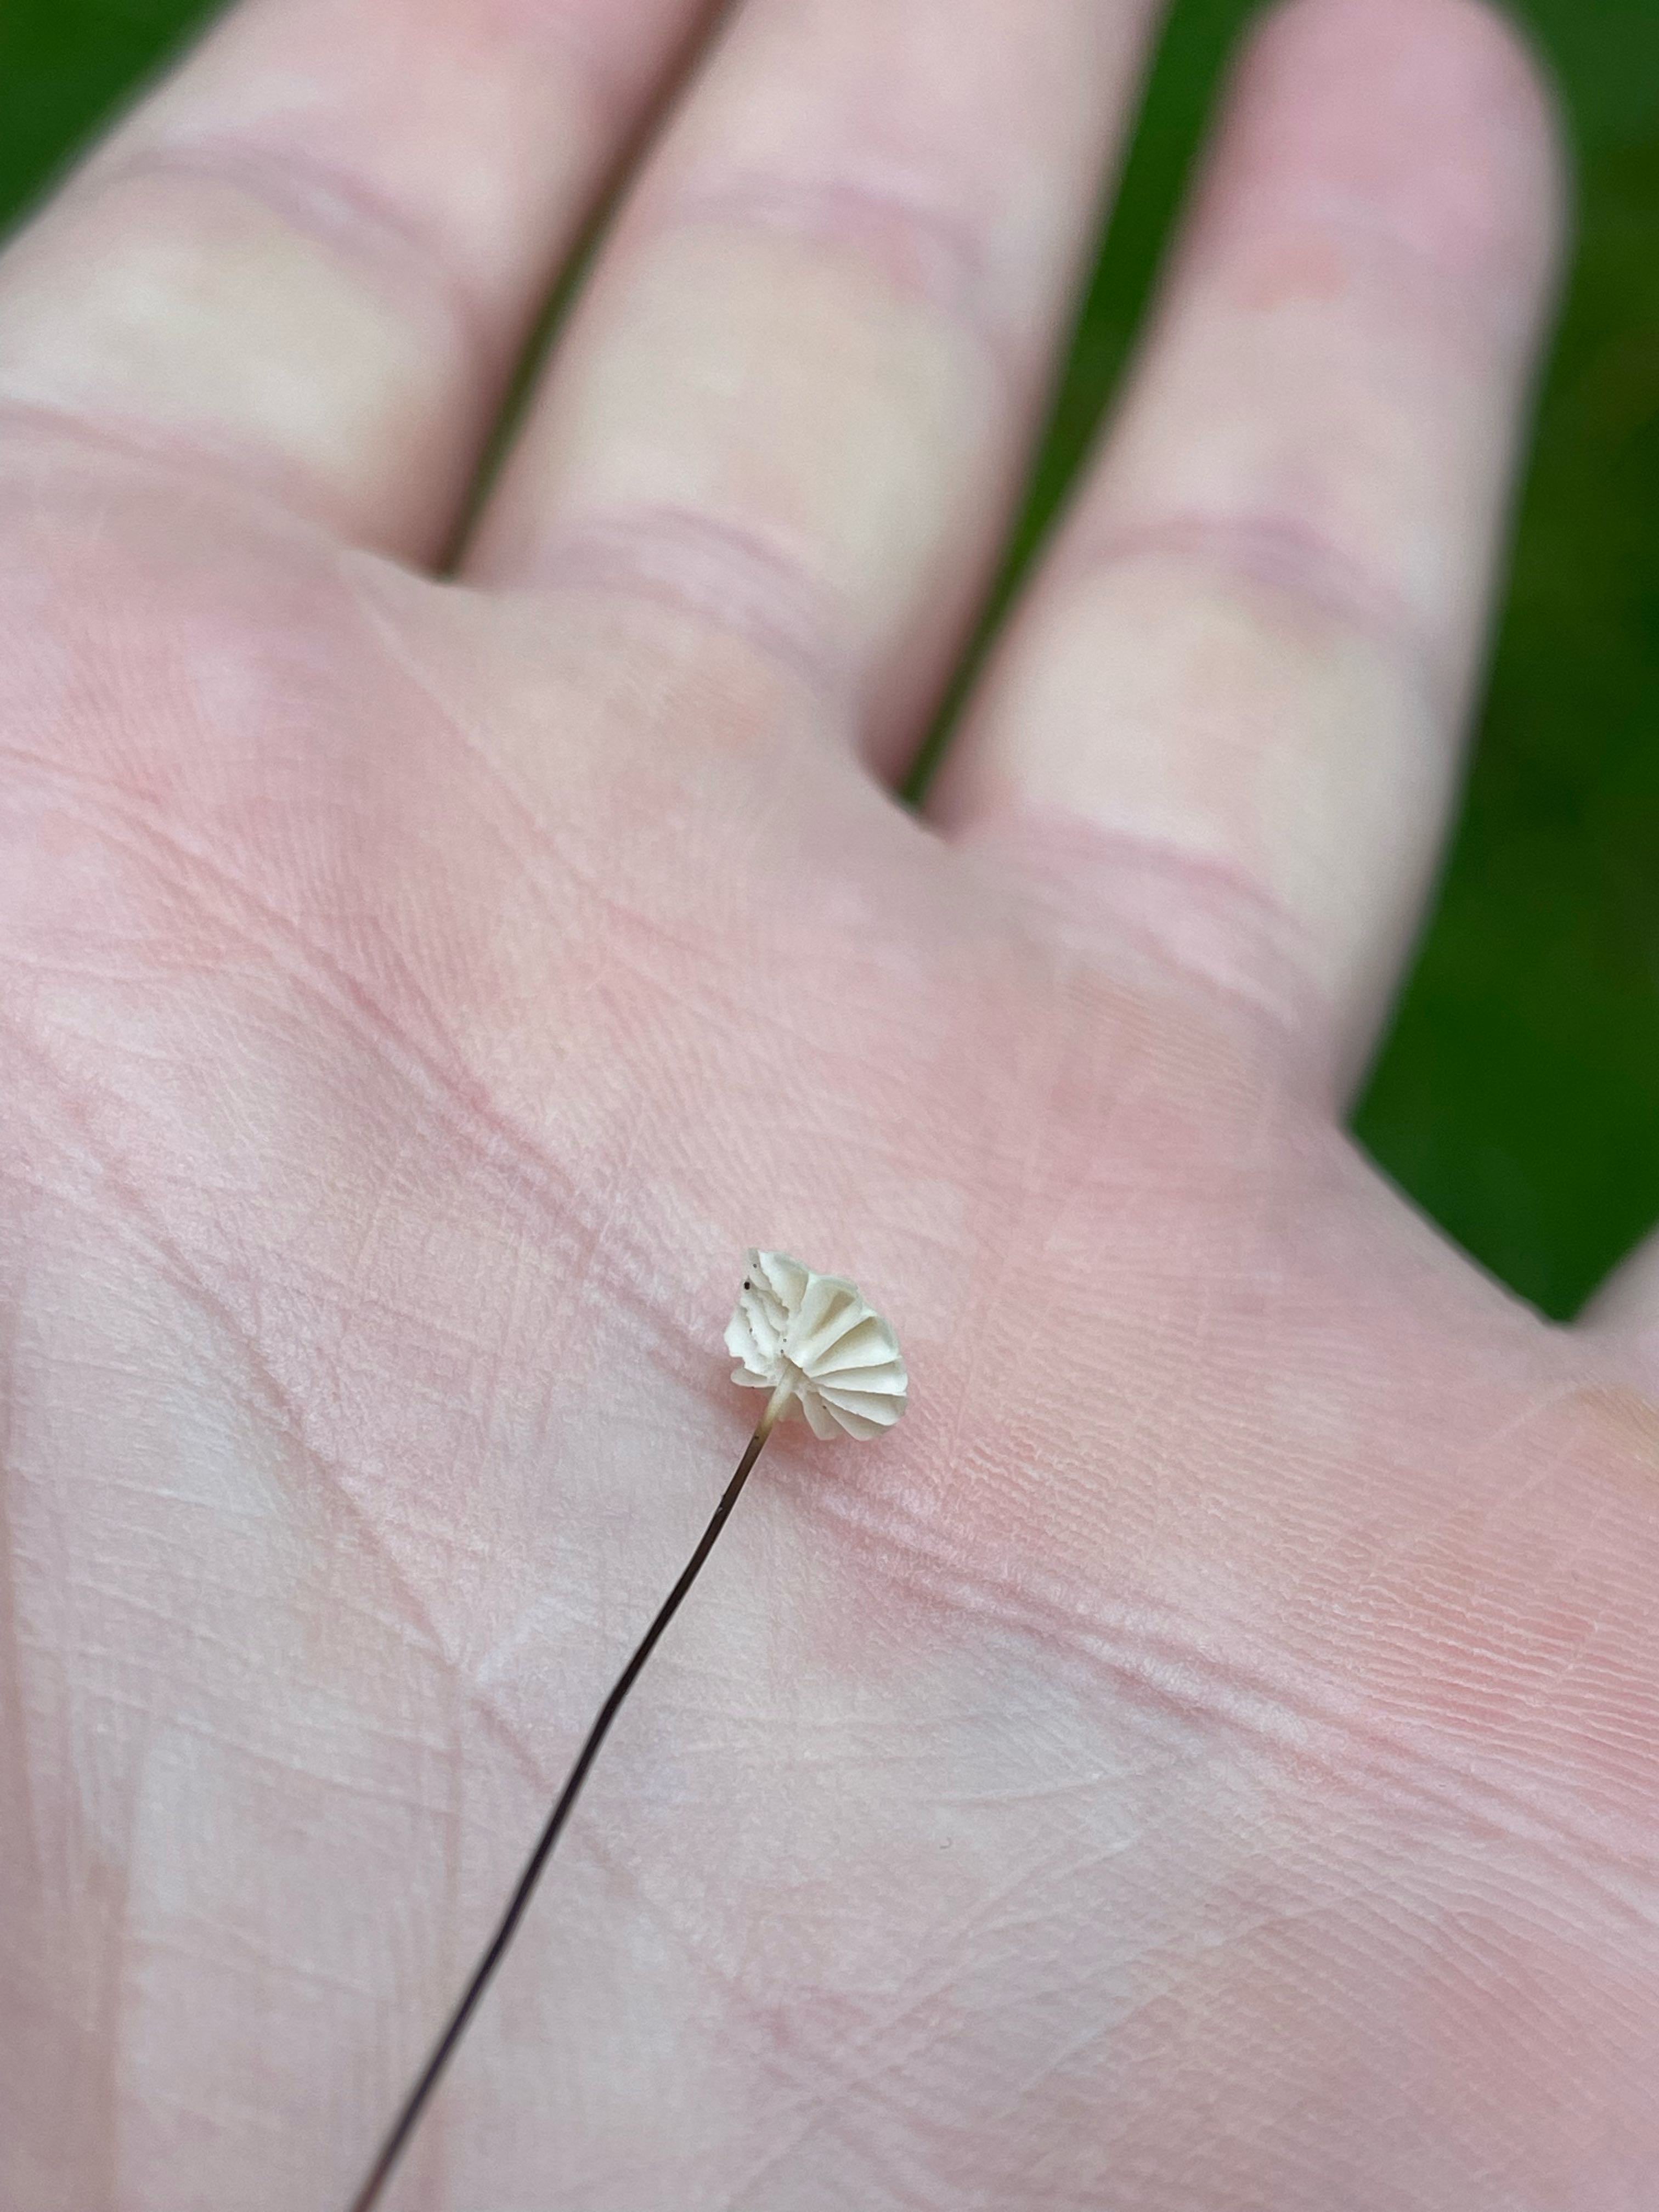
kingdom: Fungi
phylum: Basidiomycota
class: Agaricomycetes
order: Agaricales
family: Marasmiaceae
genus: Marasmius
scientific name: Marasmius rotula
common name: hjul-bruskhat
